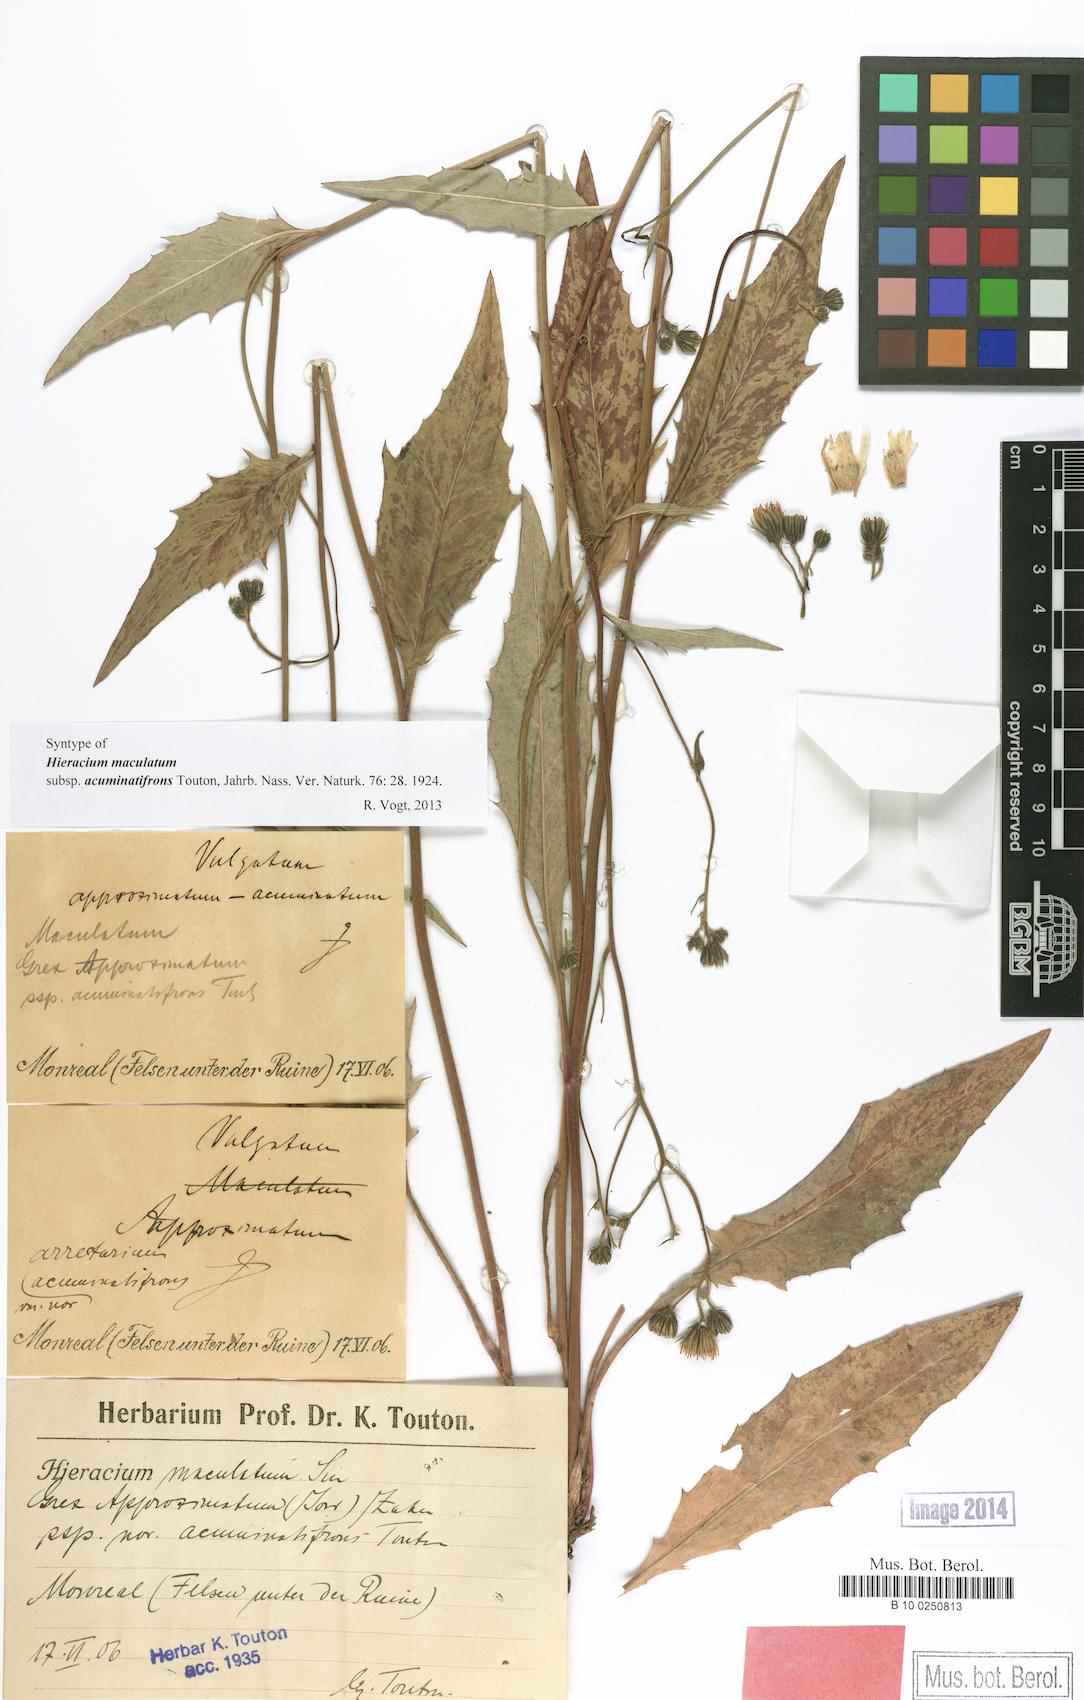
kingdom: Plantae
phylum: Tracheophyta
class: Magnoliopsida
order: Asterales
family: Asteraceae
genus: Hieracium
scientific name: Hieracium maculatum
